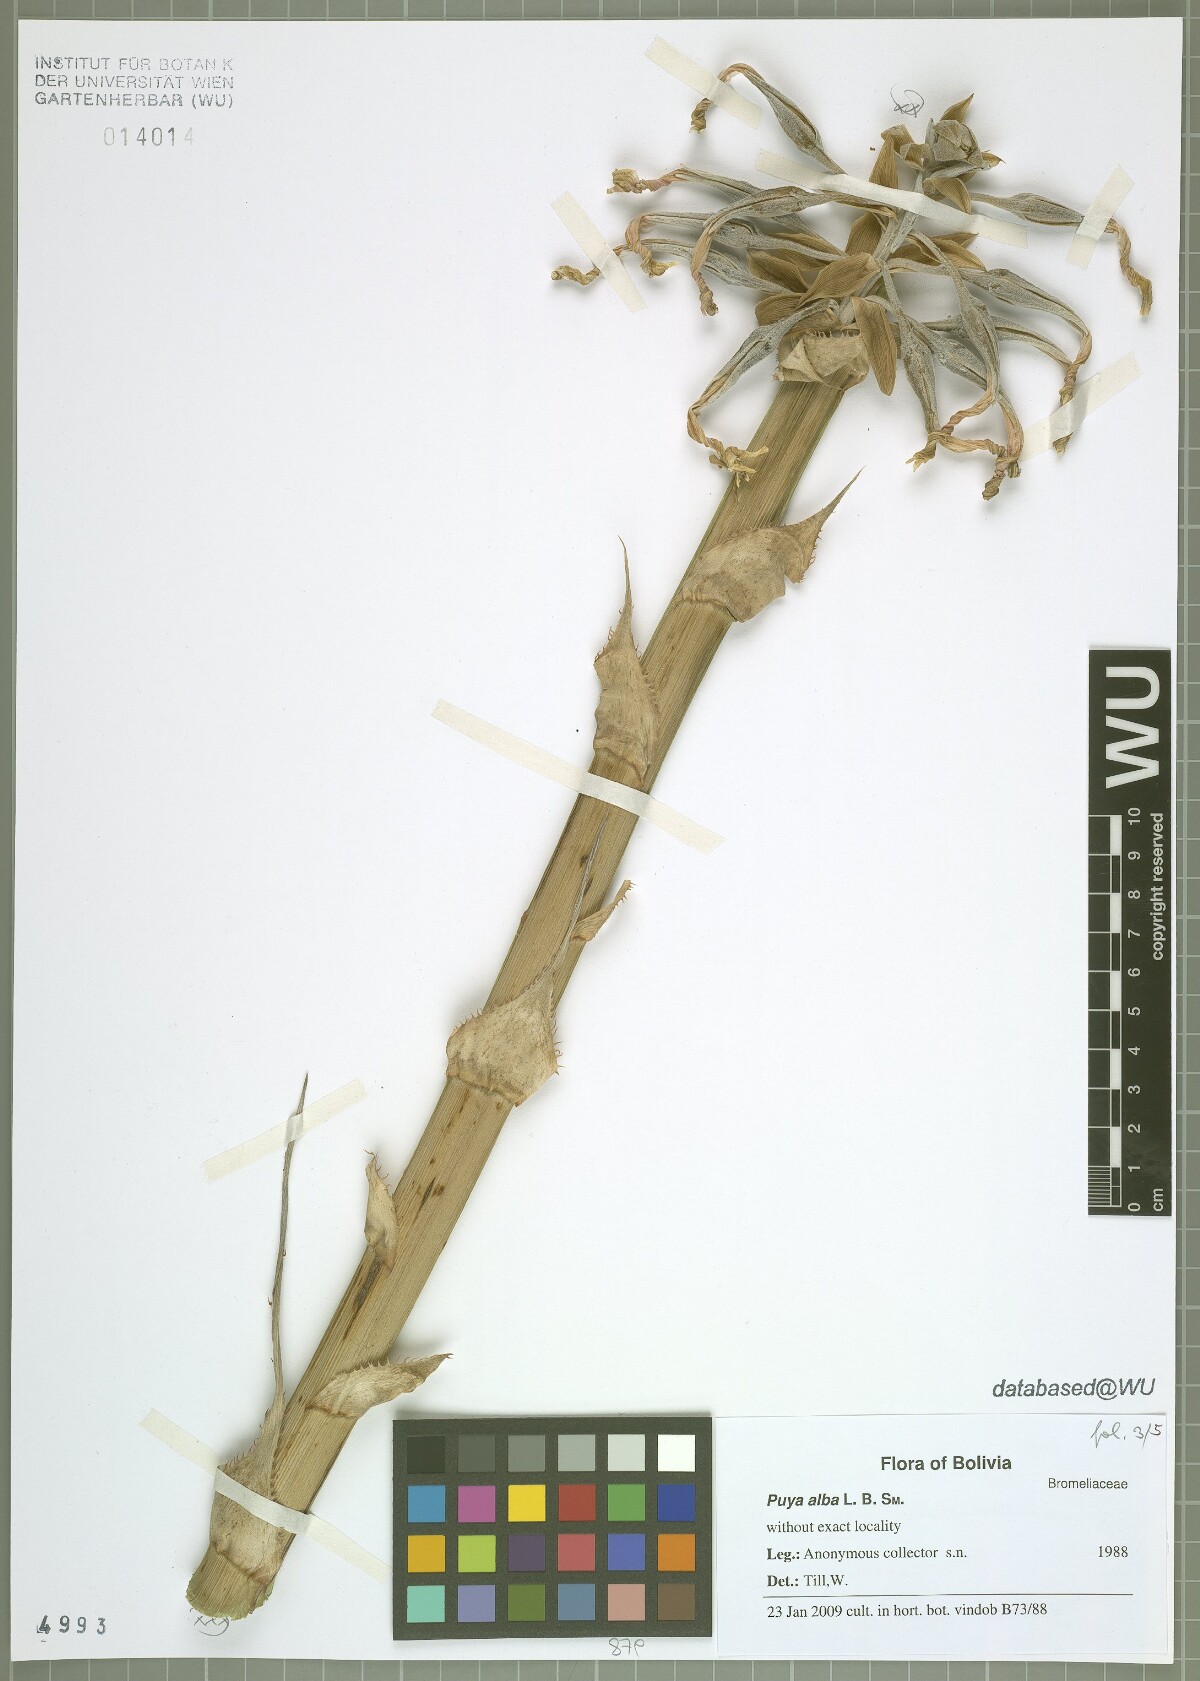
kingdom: Plantae
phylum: Tracheophyta
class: Liliopsida
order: Poales
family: Bromeliaceae
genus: Puya
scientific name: Puya alba
